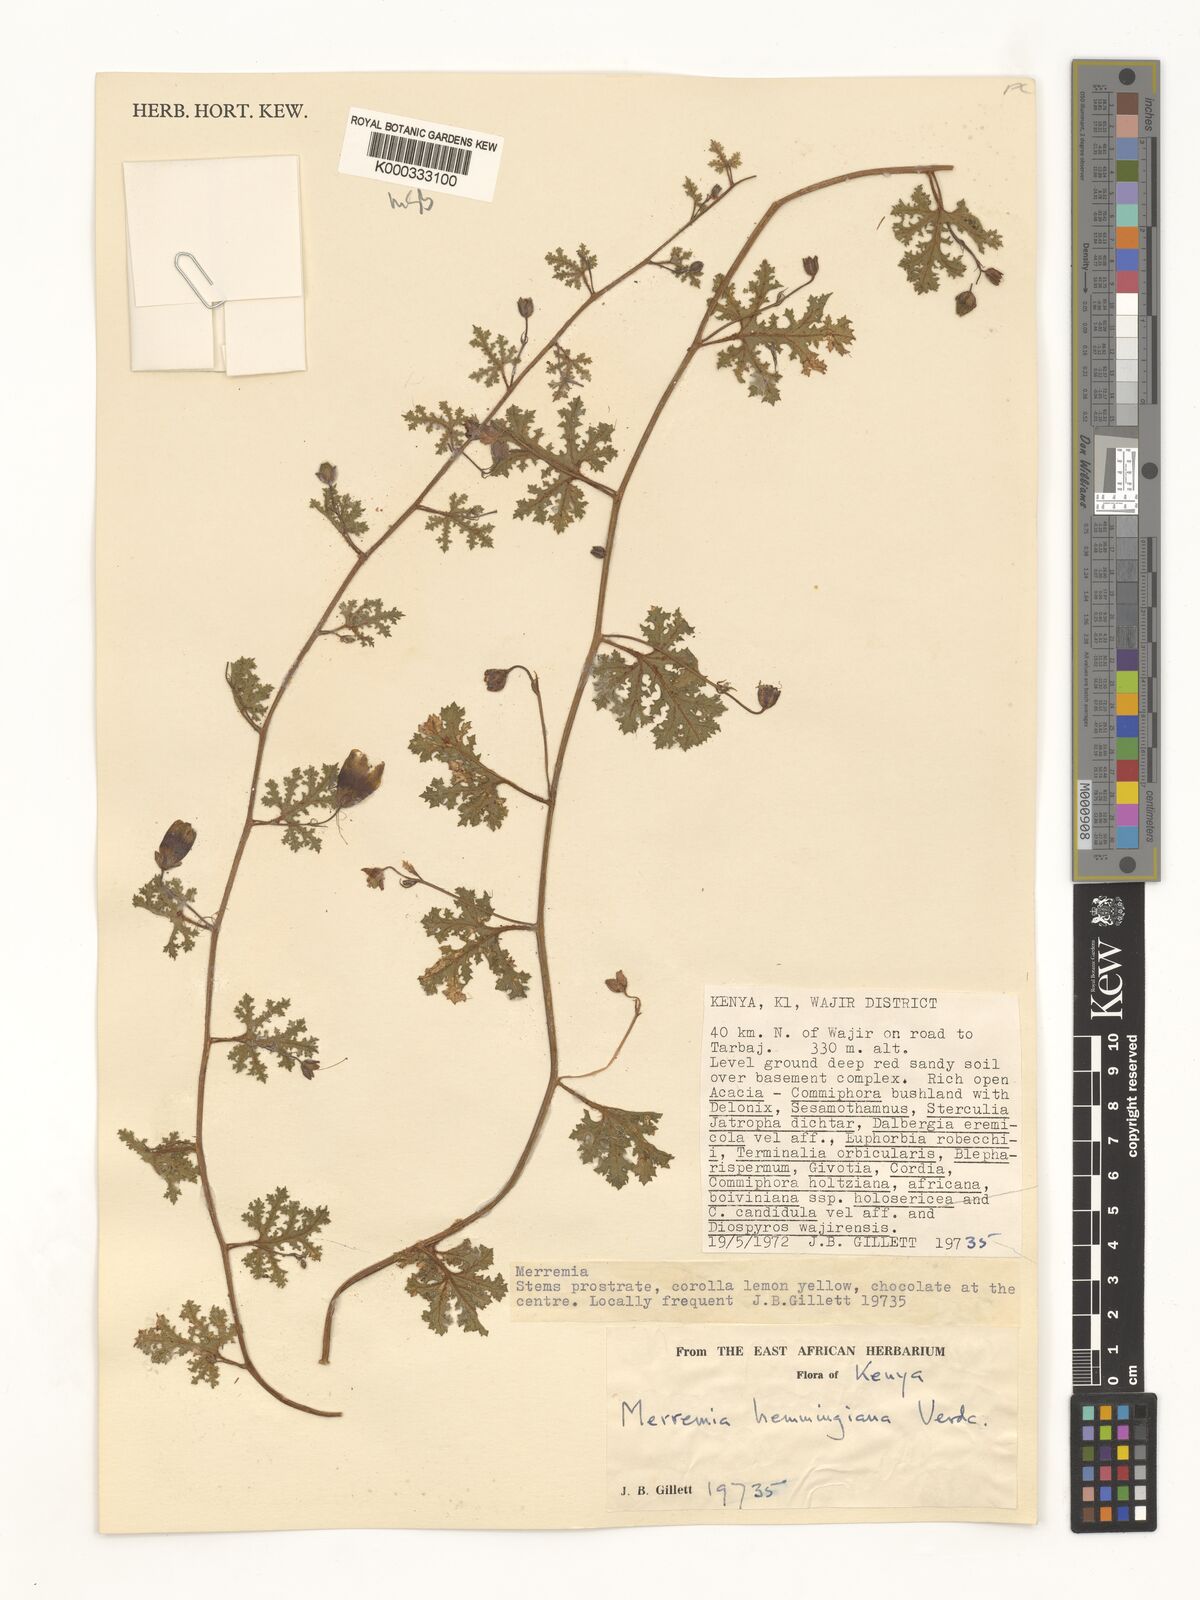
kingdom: Plantae
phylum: Tracheophyta
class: Magnoliopsida
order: Solanales
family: Convolvulaceae
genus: Merremia
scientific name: Merremia hemmingiana
